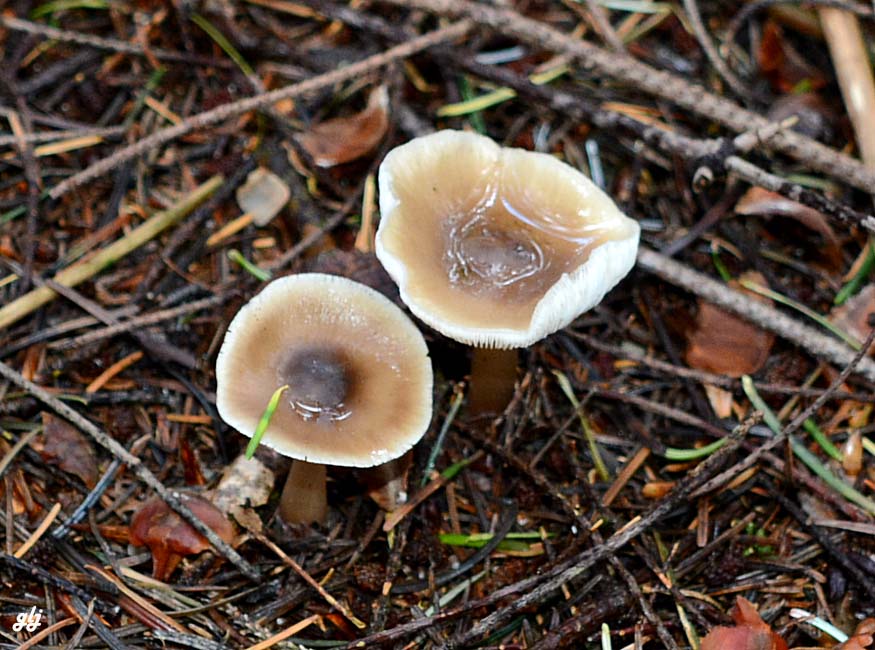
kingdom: Fungi
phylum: Basidiomycota
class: Agaricomycetes
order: Agaricales
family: Omphalotaceae
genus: Rhodocollybia
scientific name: Rhodocollybia asema
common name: horngrå fladhat
